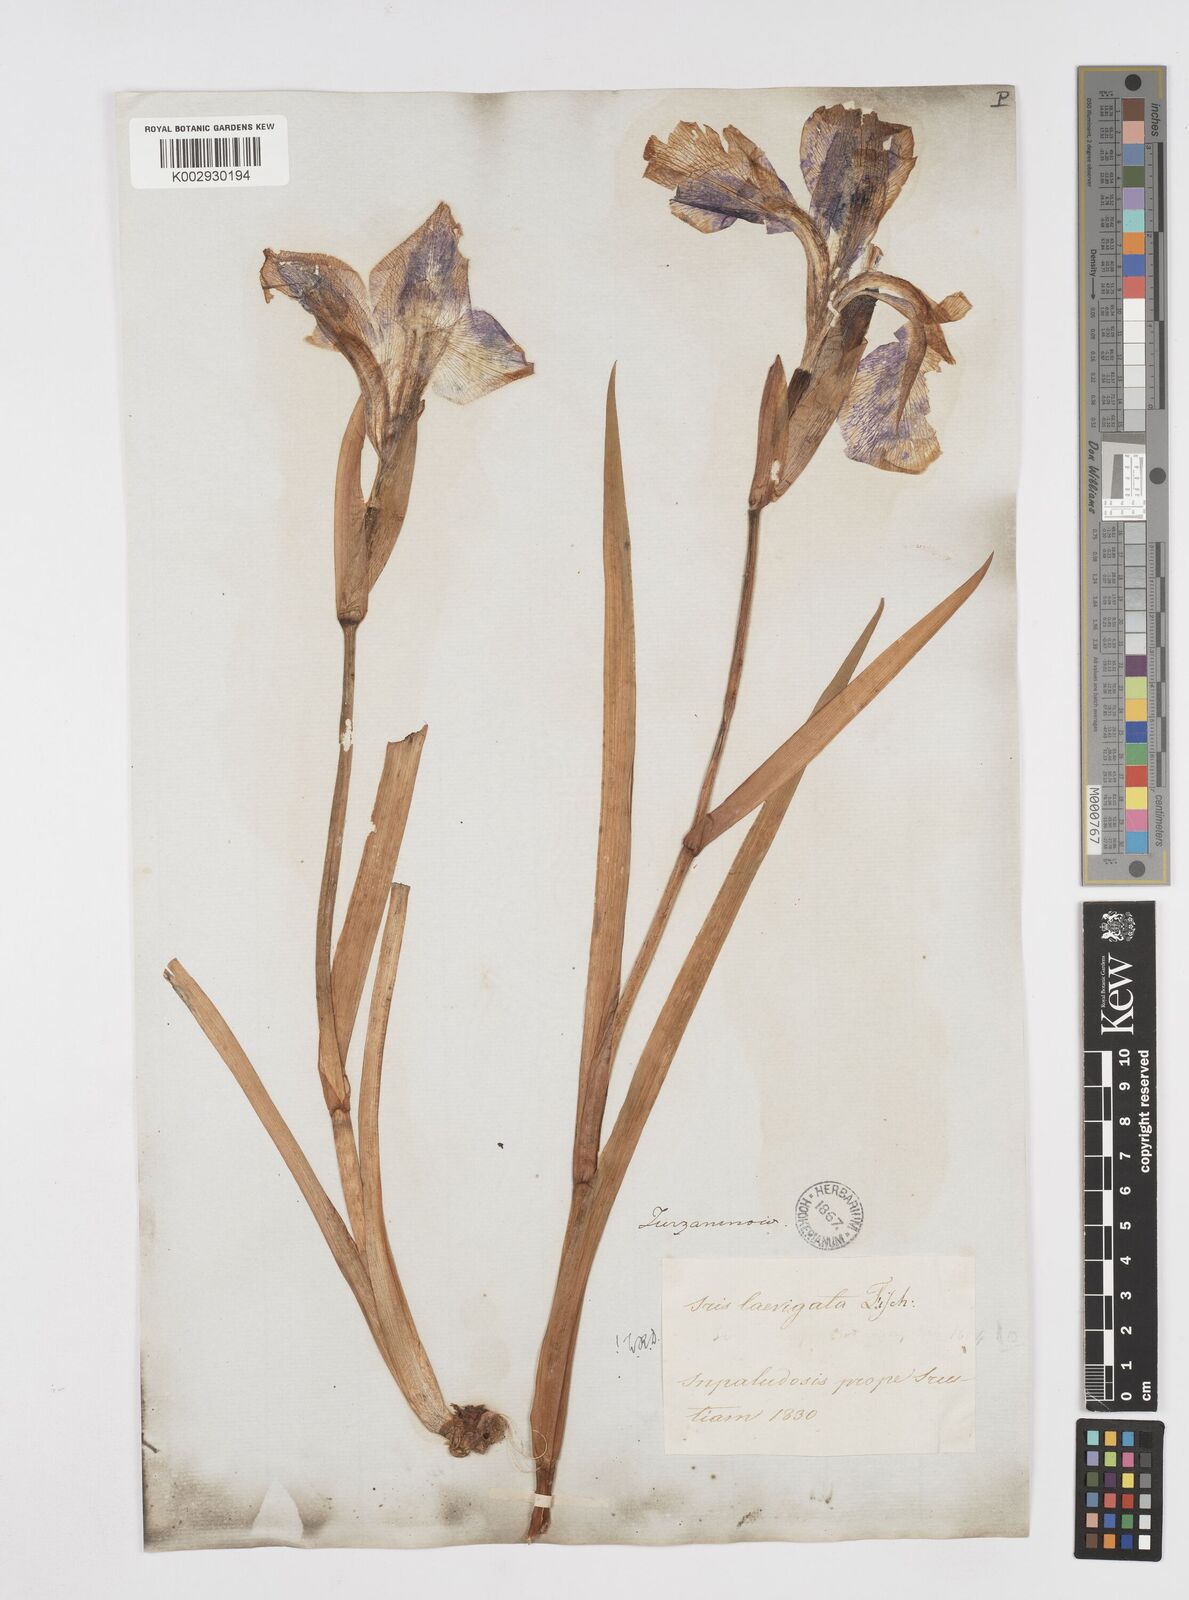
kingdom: Plantae
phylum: Tracheophyta
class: Liliopsida
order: Asparagales
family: Iridaceae
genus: Iris
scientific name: Iris laevigata
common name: Japanese iris
